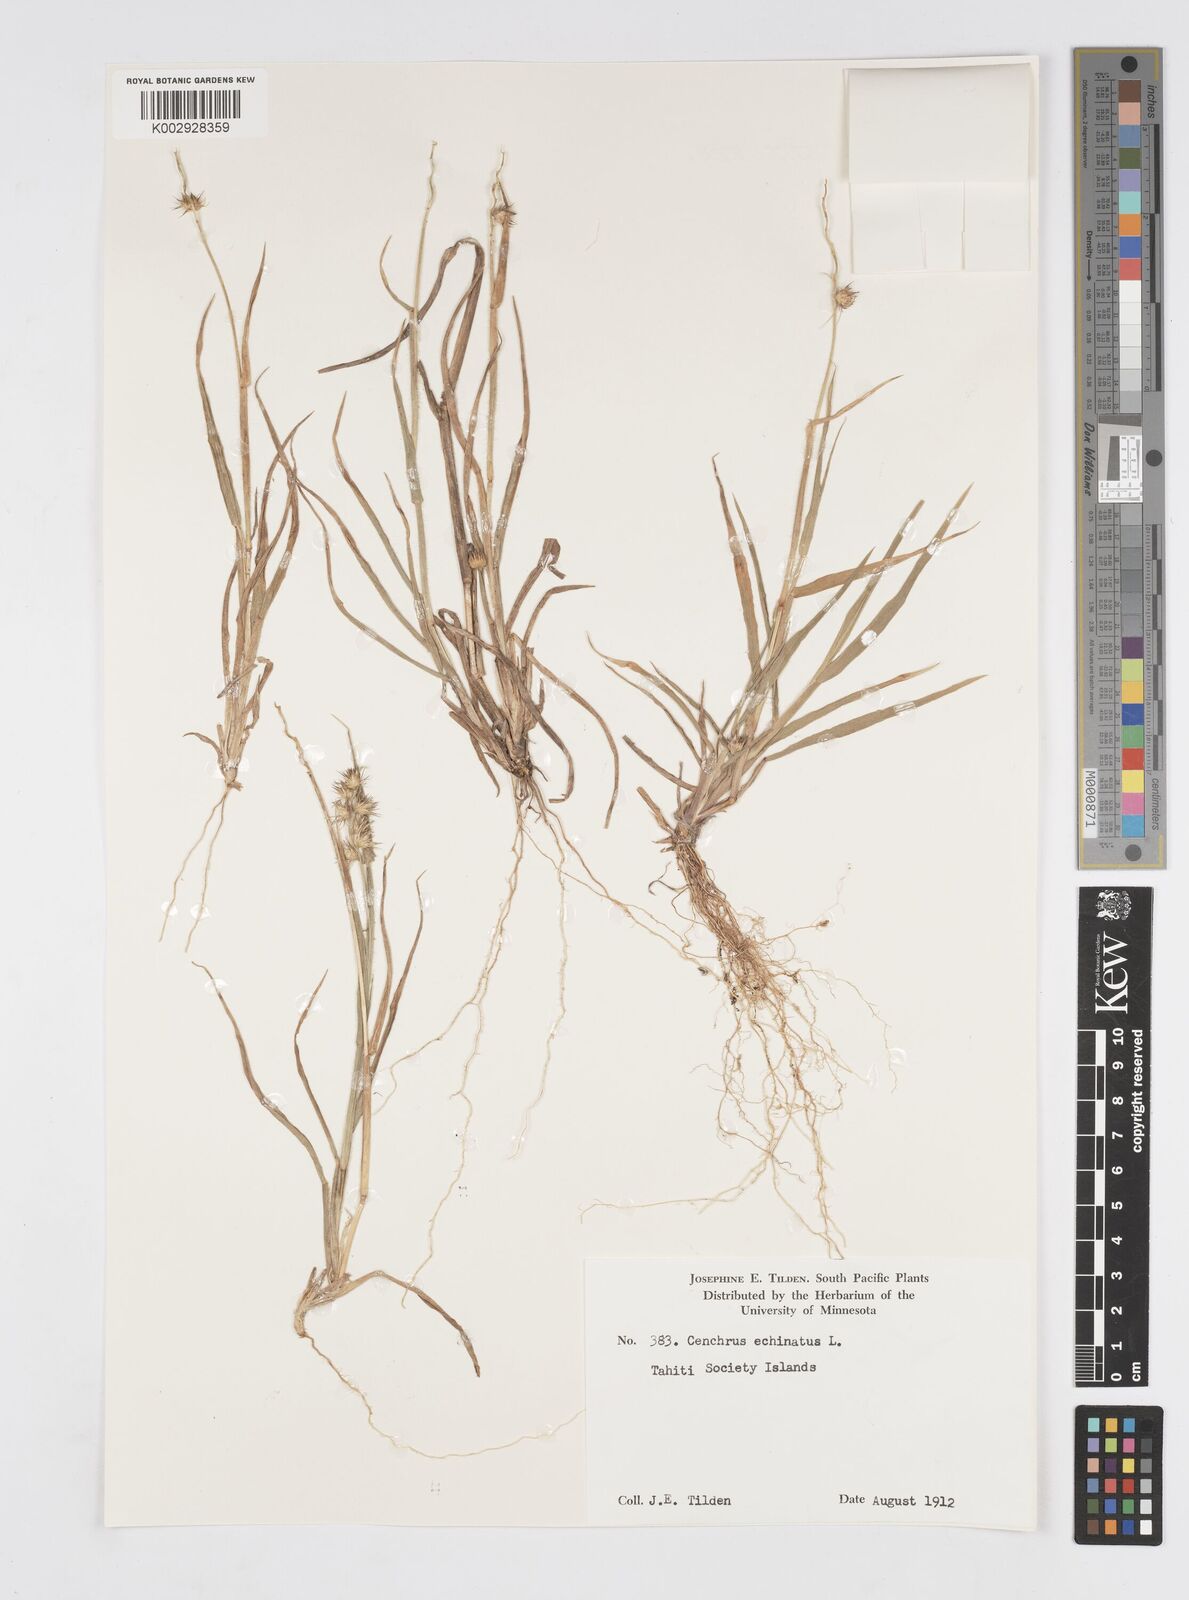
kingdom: Plantae
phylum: Tracheophyta
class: Liliopsida
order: Poales
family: Poaceae
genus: Cenchrus
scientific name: Cenchrus echinatus
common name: Southern sandbur
